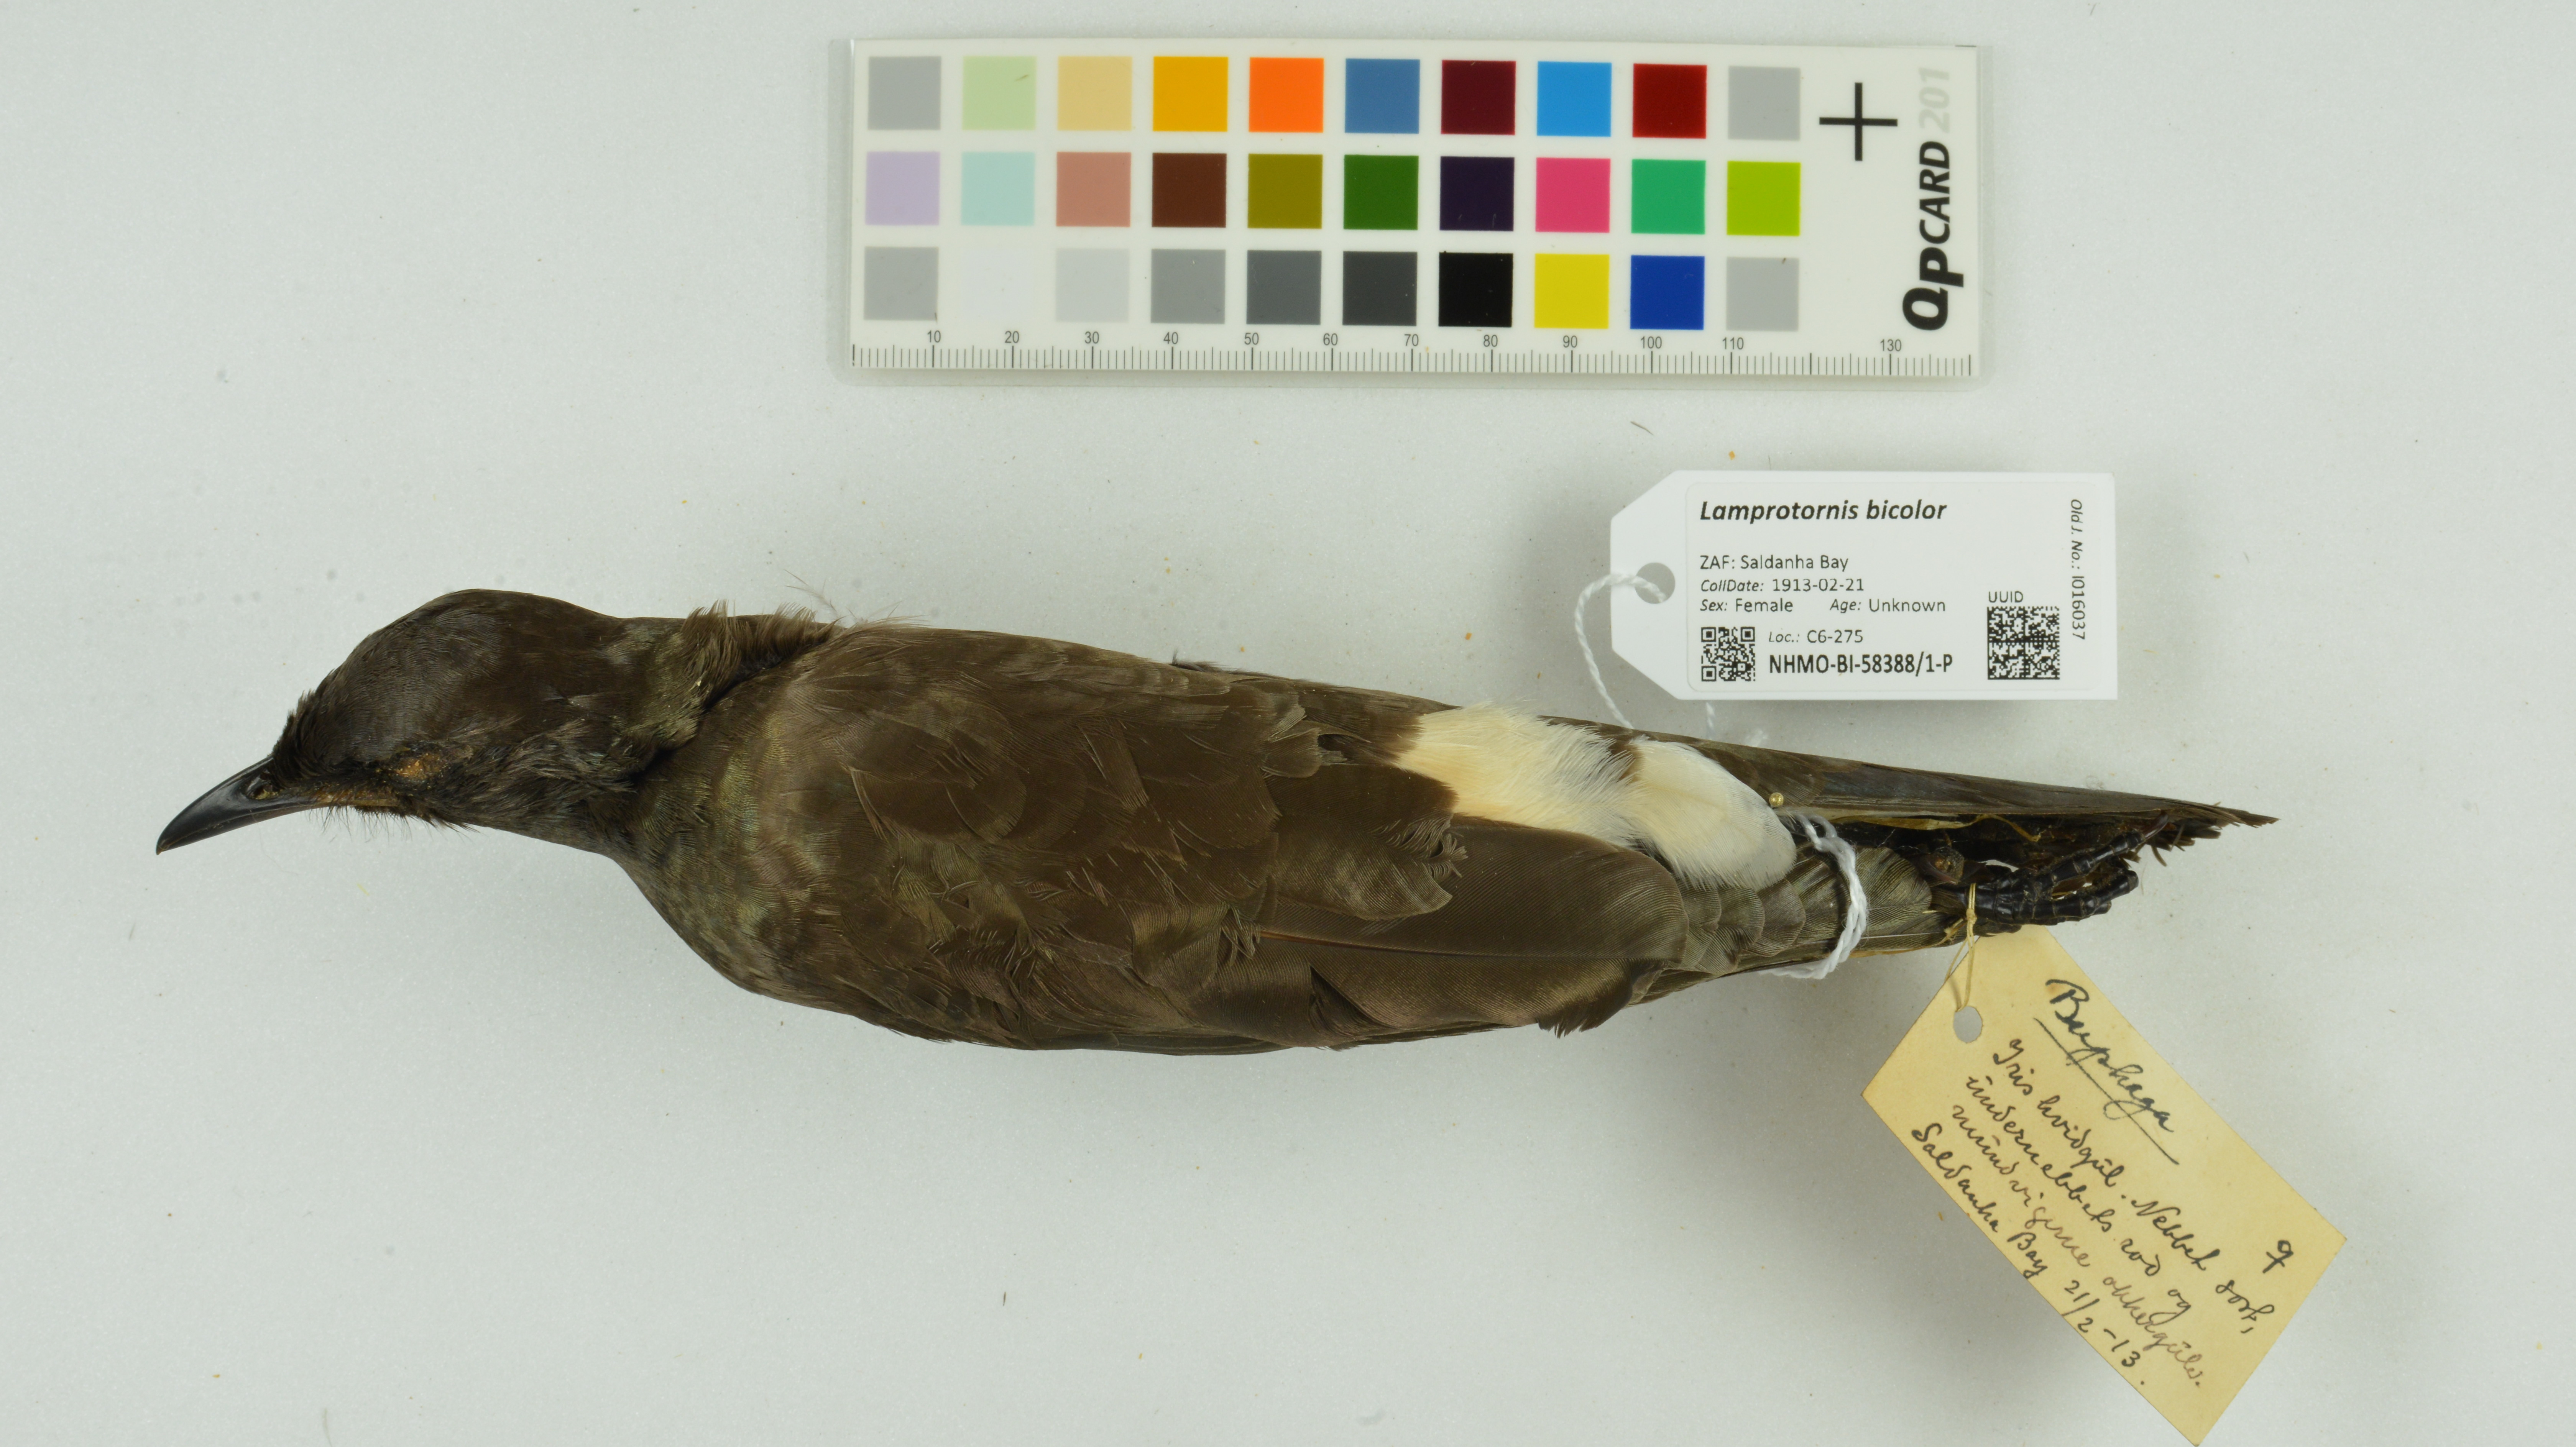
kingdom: Animalia
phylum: Chordata
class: Aves
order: Passeriformes
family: Sturnidae
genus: Lamprotornis
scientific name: Lamprotornis bicolor
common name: Pied starling
